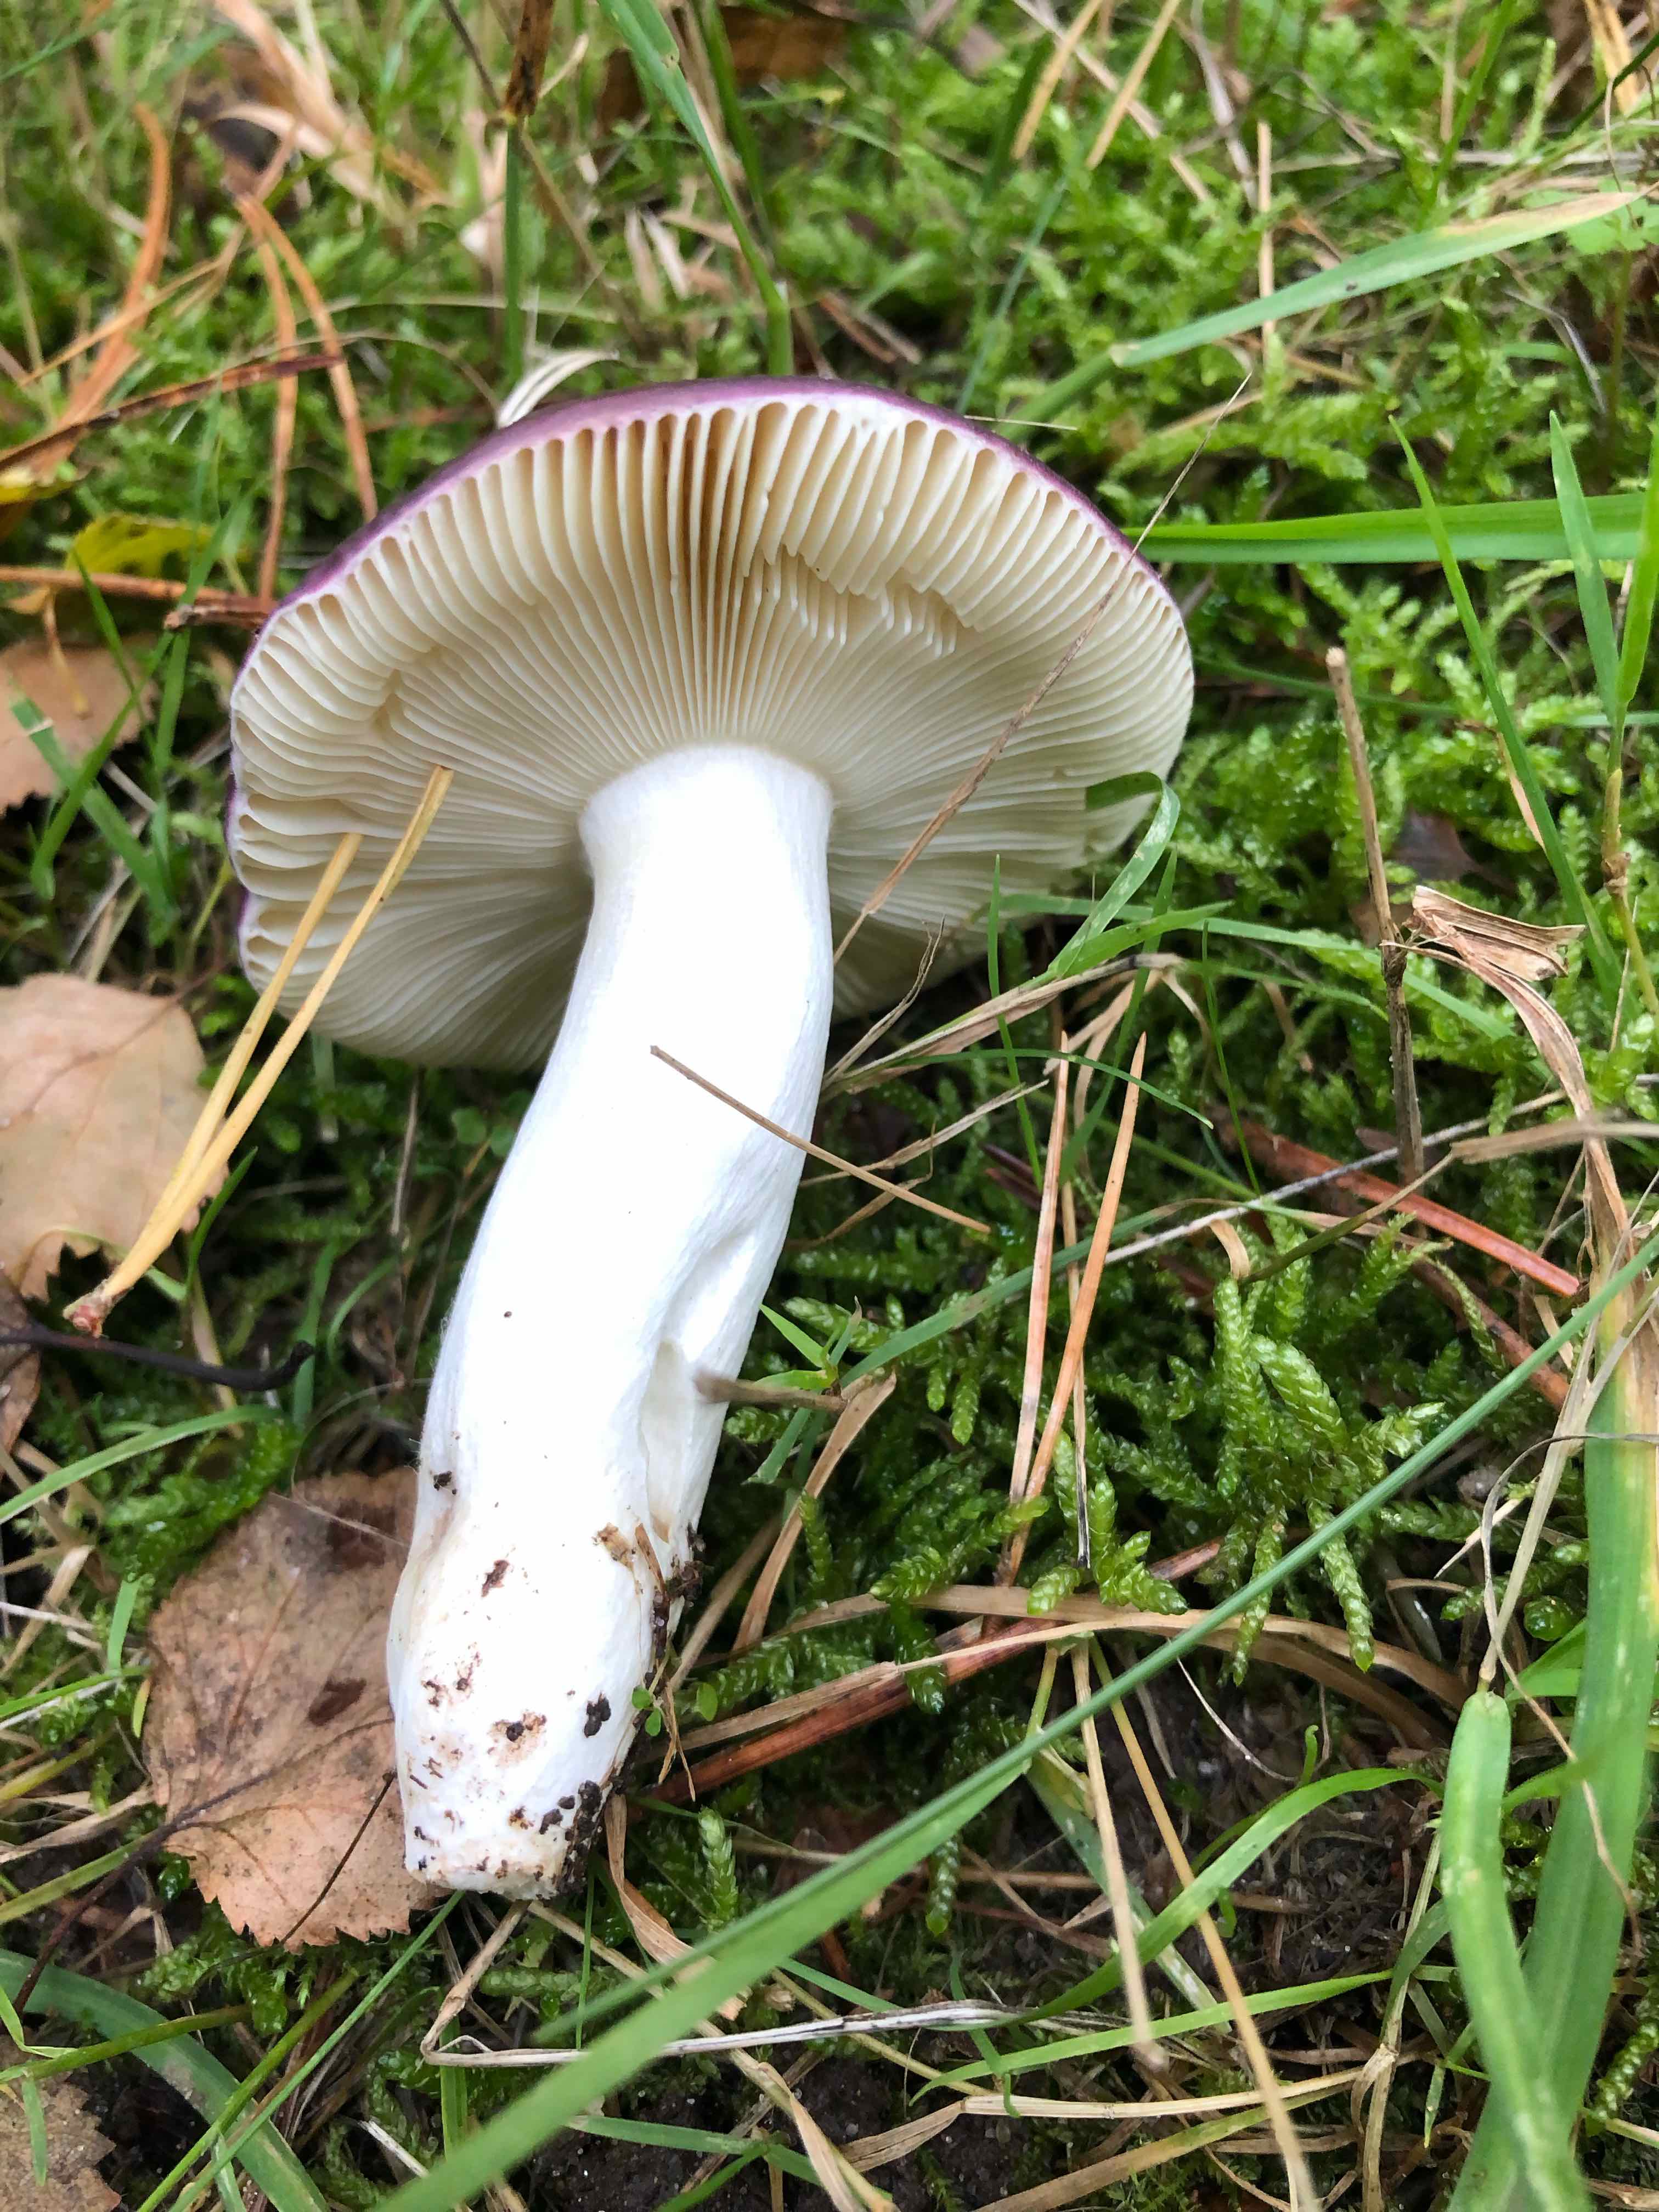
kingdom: Fungi
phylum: Basidiomycota
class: Agaricomycetes
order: Russulales
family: Russulaceae
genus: Russula
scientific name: Russula caerulea
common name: puklet skørhat
